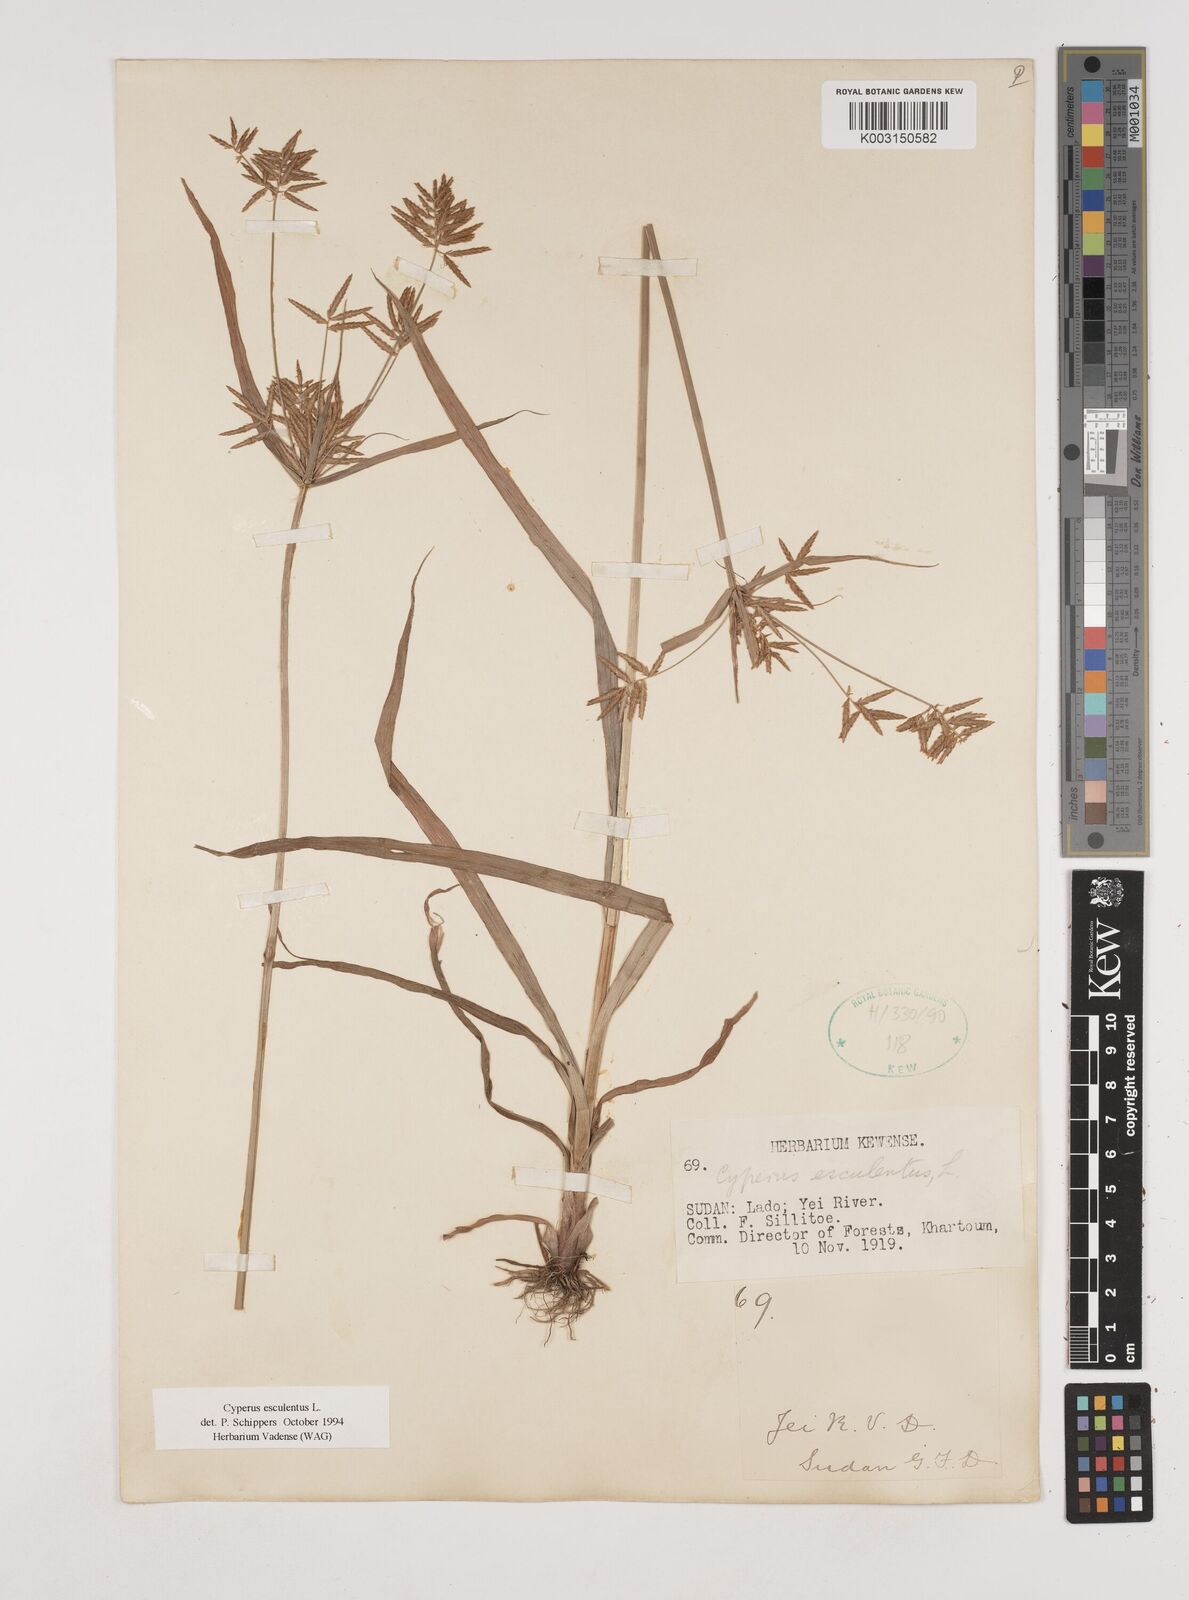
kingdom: Plantae
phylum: Tracheophyta
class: Liliopsida
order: Poales
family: Cyperaceae
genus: Cyperus
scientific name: Cyperus esculentus
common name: Yellow nutsedge
